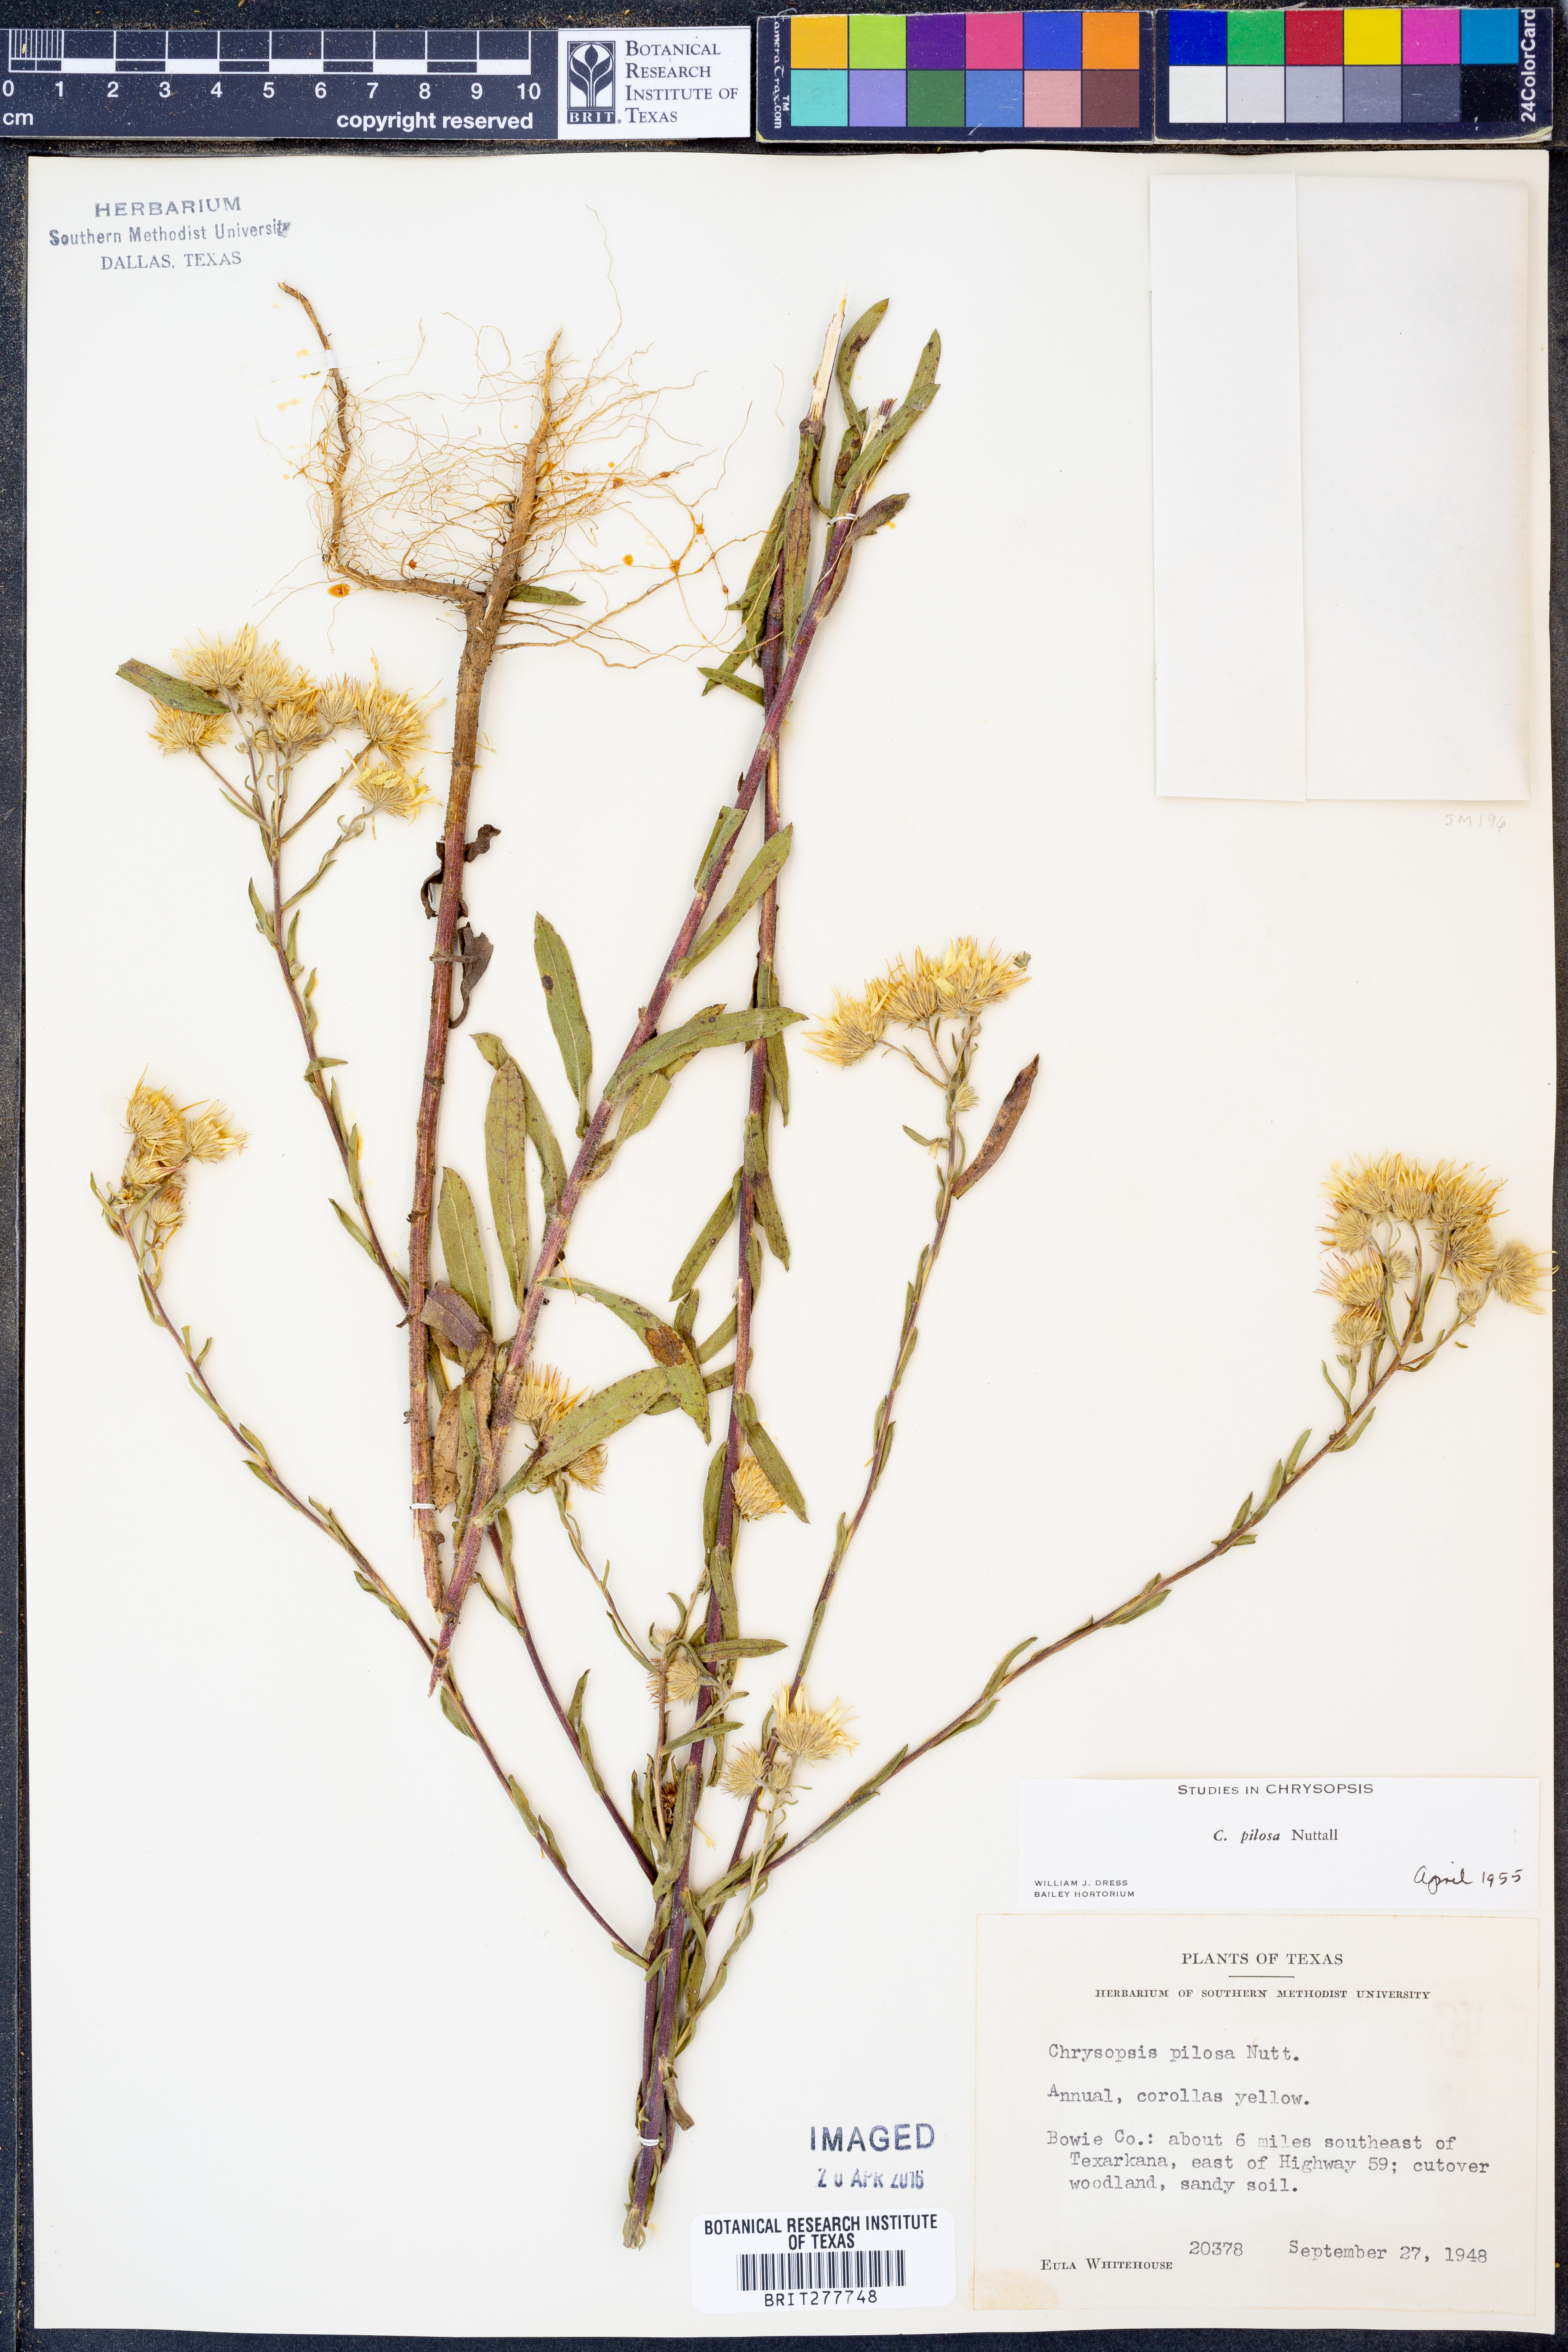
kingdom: Plantae
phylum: Tracheophyta
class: Magnoliopsida
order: Asterales
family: Asteraceae
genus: Bradburia
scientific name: Bradburia pilosa
